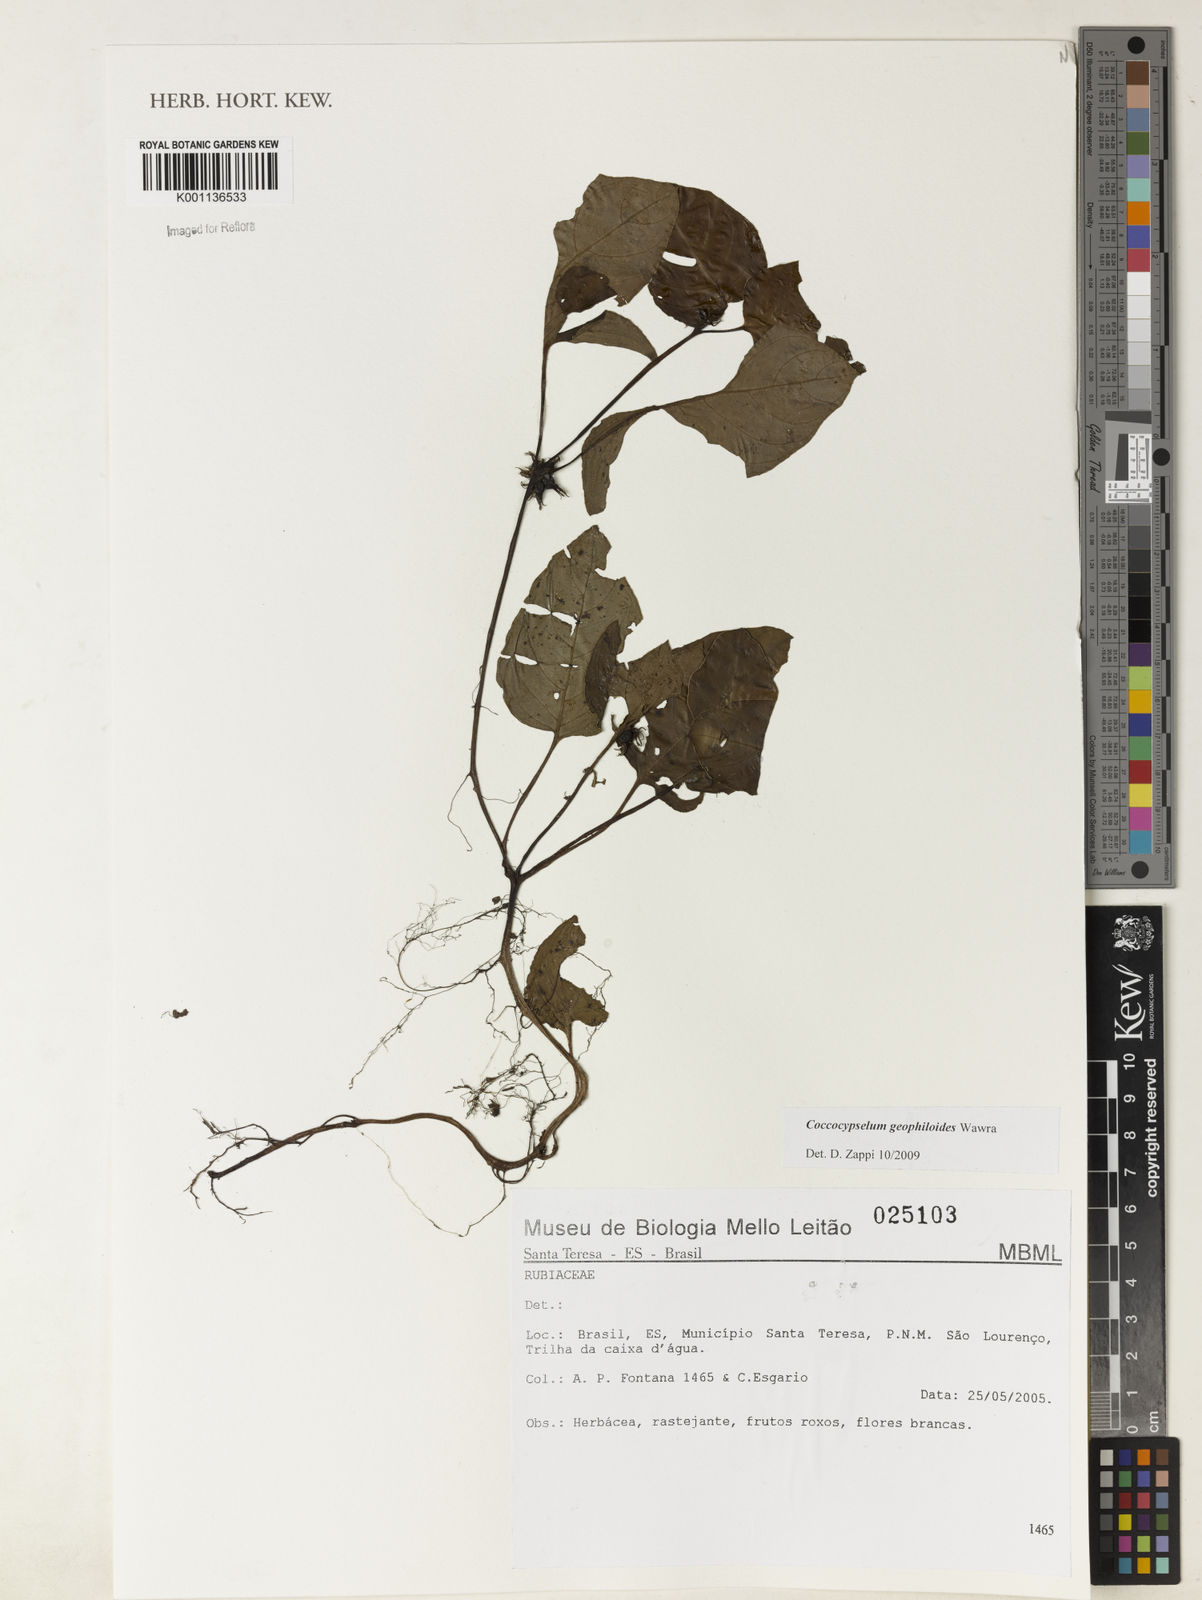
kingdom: Plantae
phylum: Tracheophyta
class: Magnoliopsida
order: Gentianales
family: Rubiaceae
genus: Coccocypselum
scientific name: Coccocypselum geophiloides
